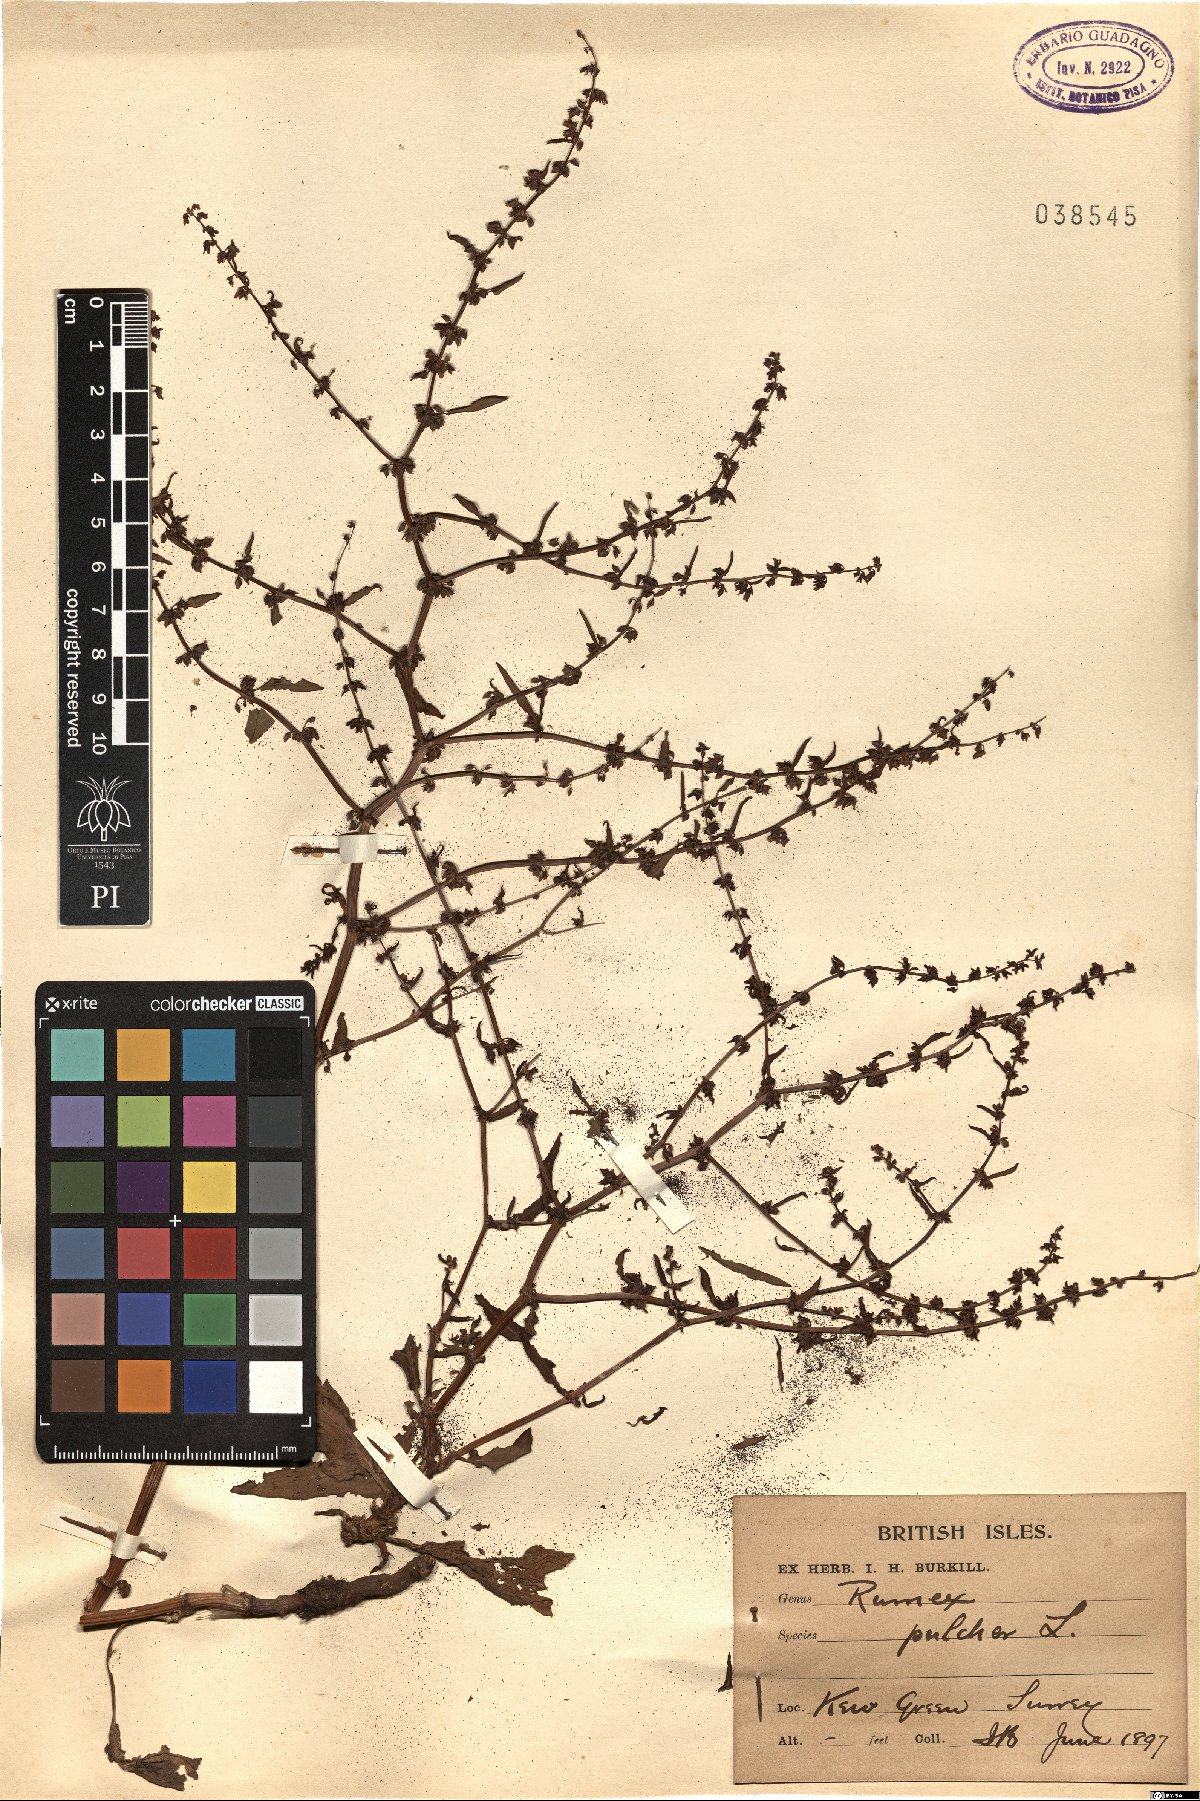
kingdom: Plantae
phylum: Tracheophyta
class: Magnoliopsida
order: Caryophyllales
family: Polygonaceae
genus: Rumex
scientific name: Rumex pulcher
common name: Fiddle dock
